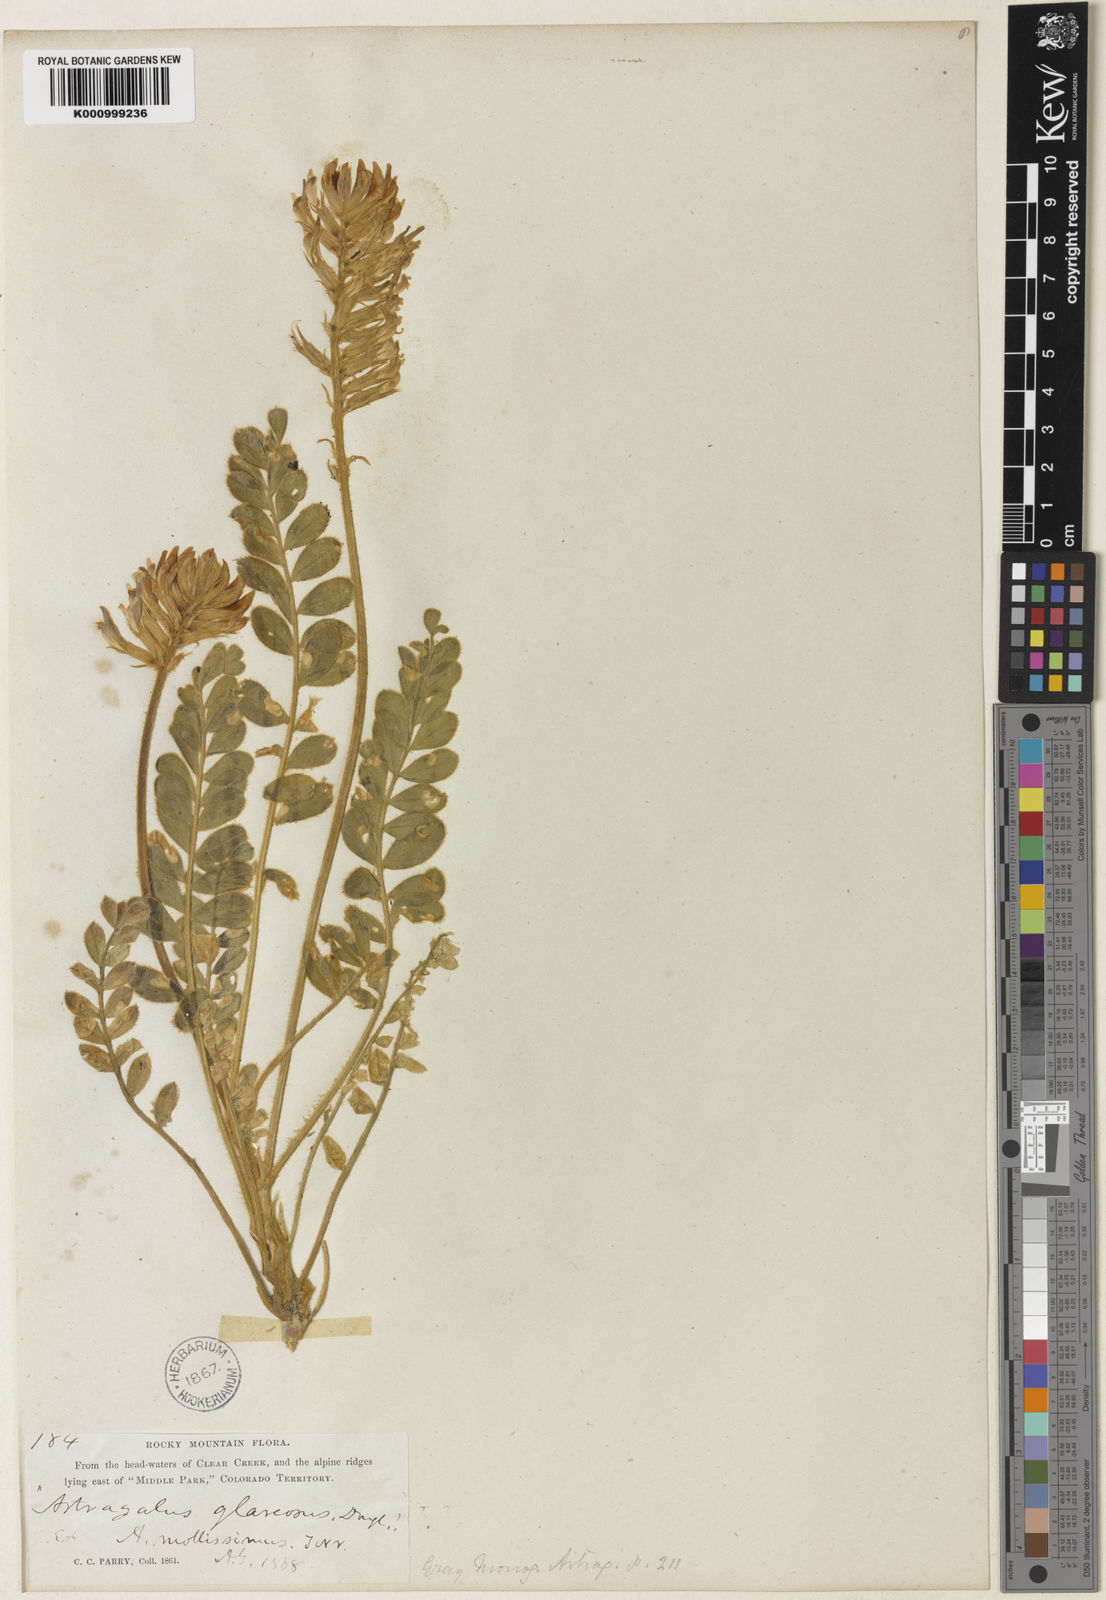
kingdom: Plantae
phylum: Tracheophyta
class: Magnoliopsida
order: Fabales
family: Fabaceae
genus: Astragalus
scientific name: Astragalus mollissimus
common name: Woolly locoweed
